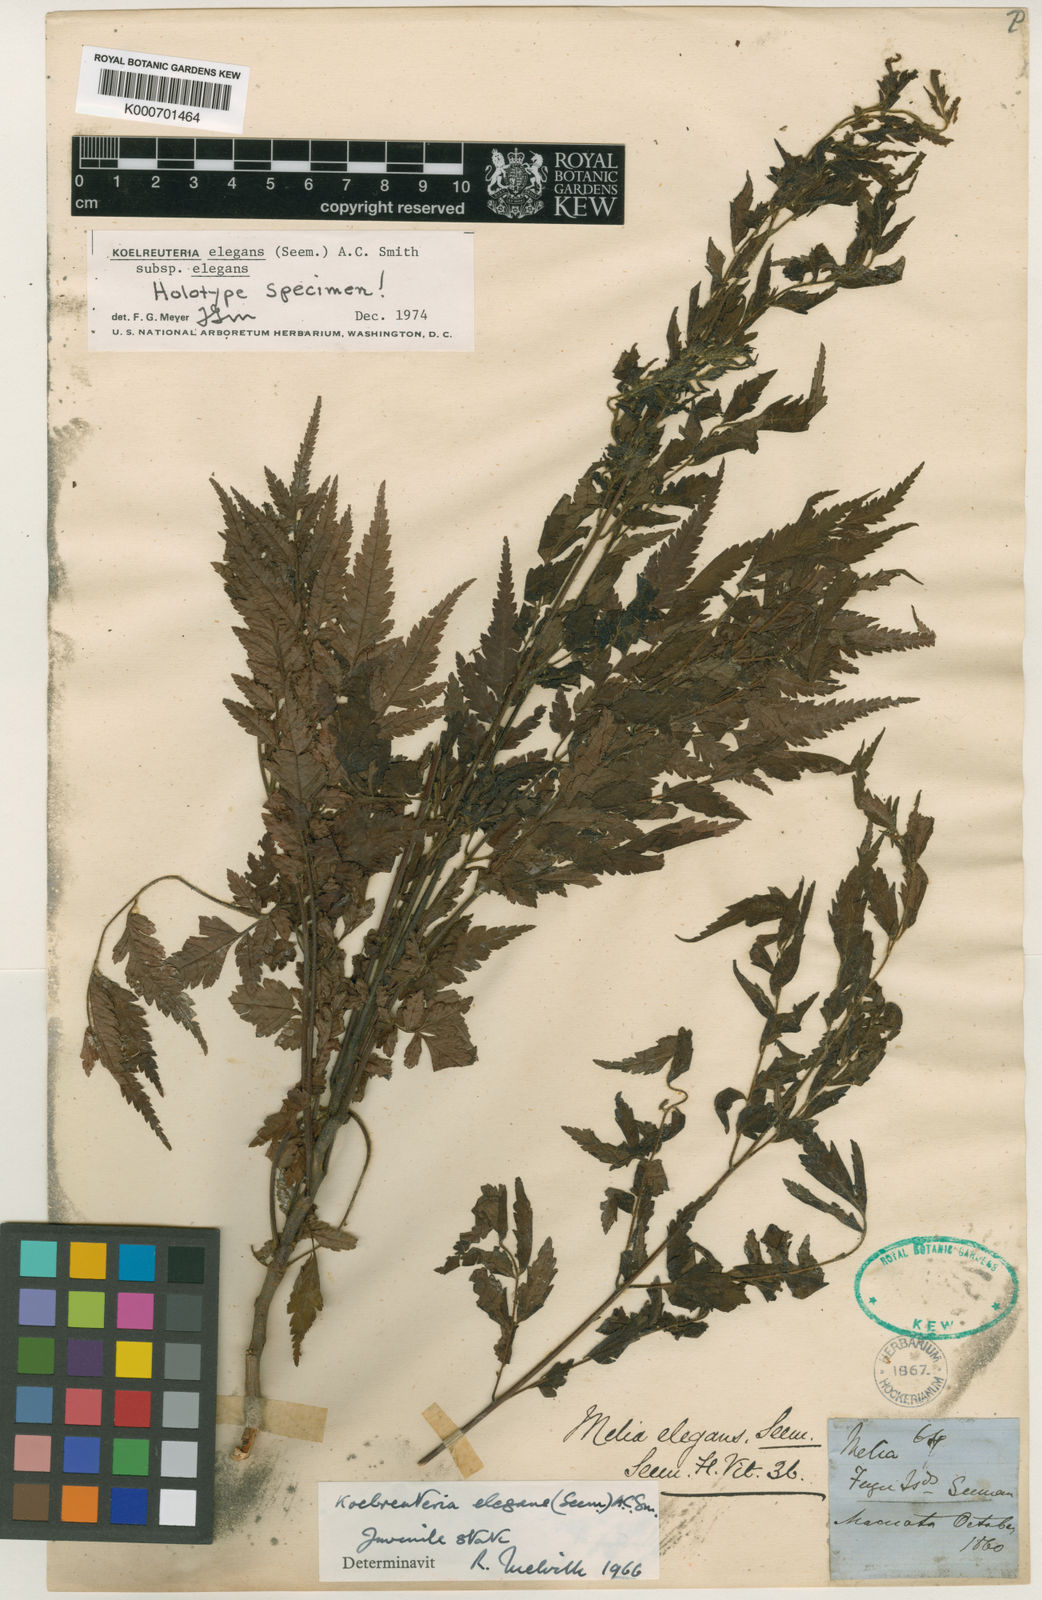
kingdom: Plantae
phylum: Tracheophyta
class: Magnoliopsida
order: Sapindales
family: Sapindaceae
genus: Koelreuteria
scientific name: Koelreuteria elegans
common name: Chinese flame tree
